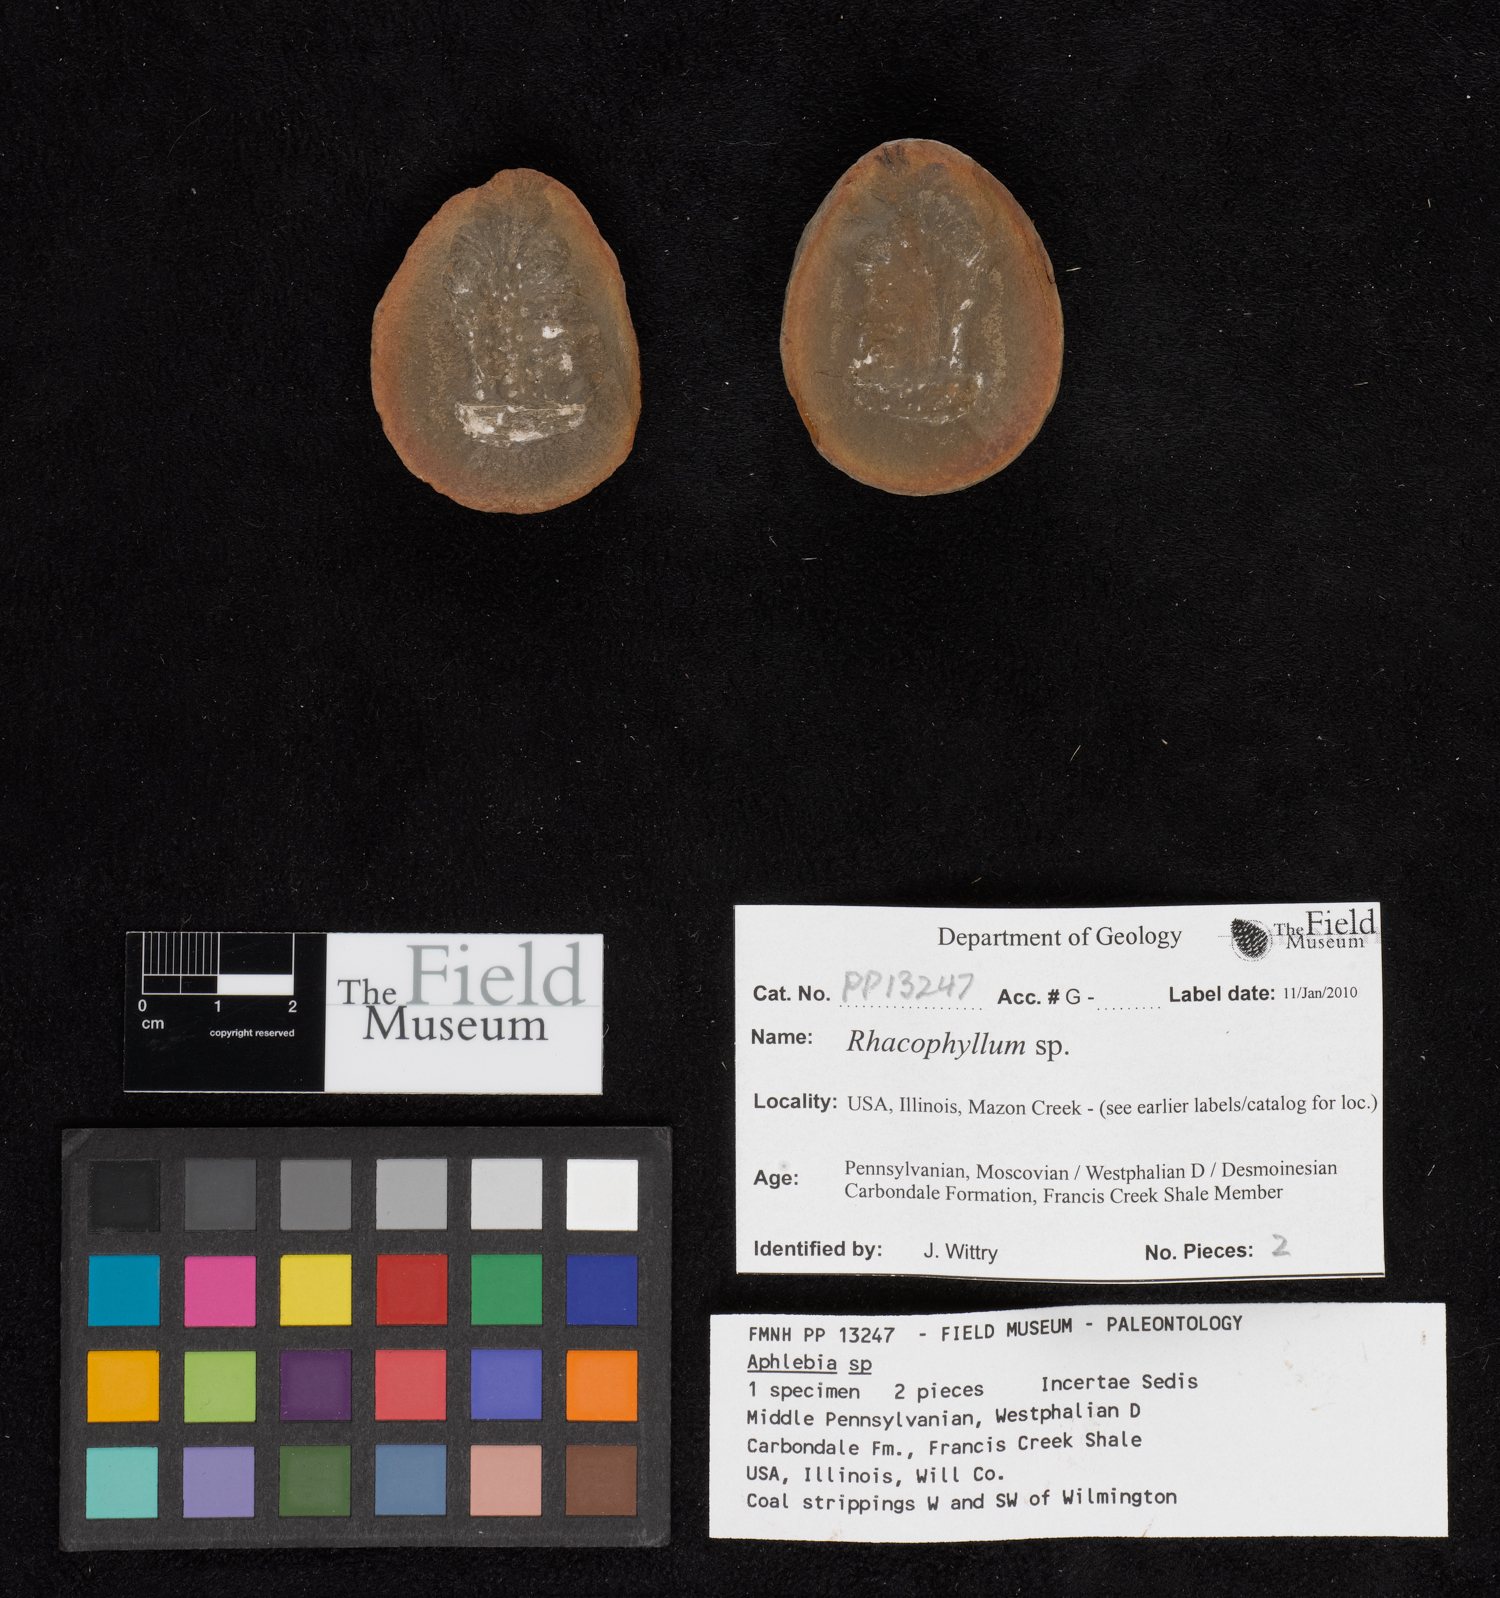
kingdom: Plantae
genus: Rhacophyllum
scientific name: Rhacophyllum
